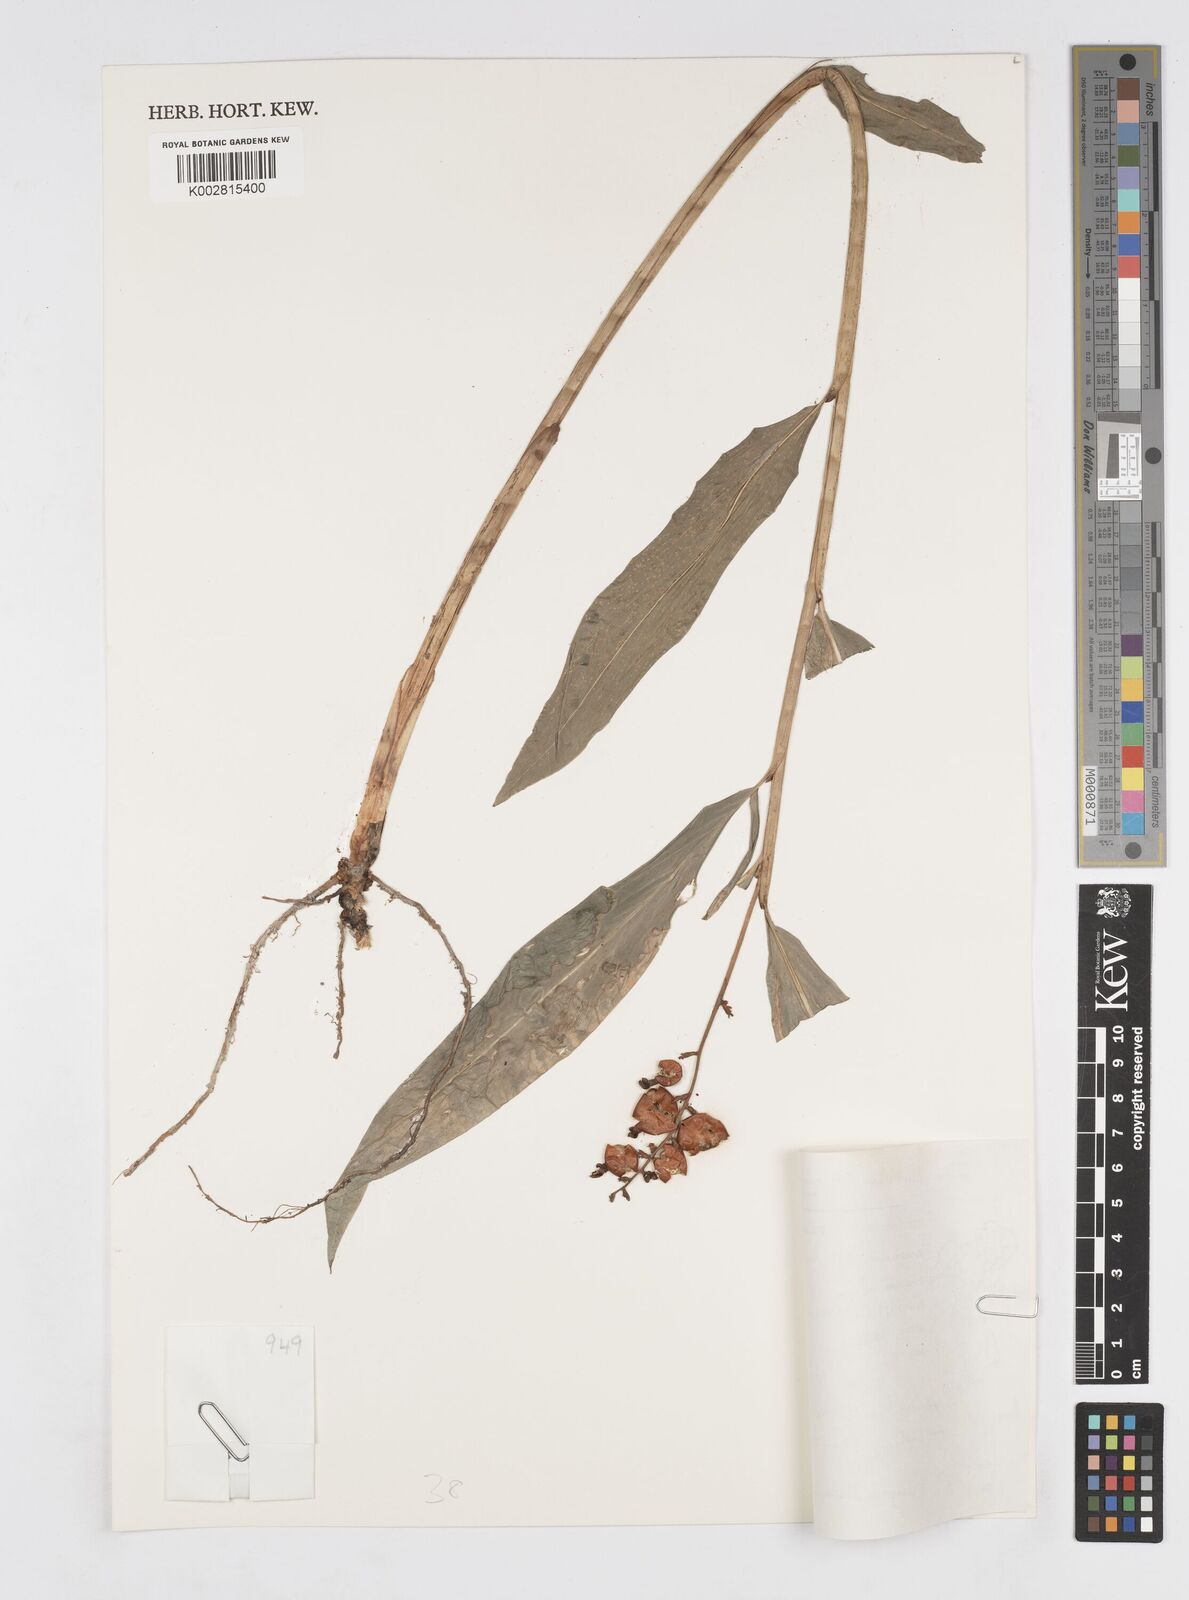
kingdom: Plantae
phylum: Tracheophyta
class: Liliopsida
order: Zingiberales
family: Zingiberaceae
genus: Alpinia
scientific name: Alpinia conchigera
